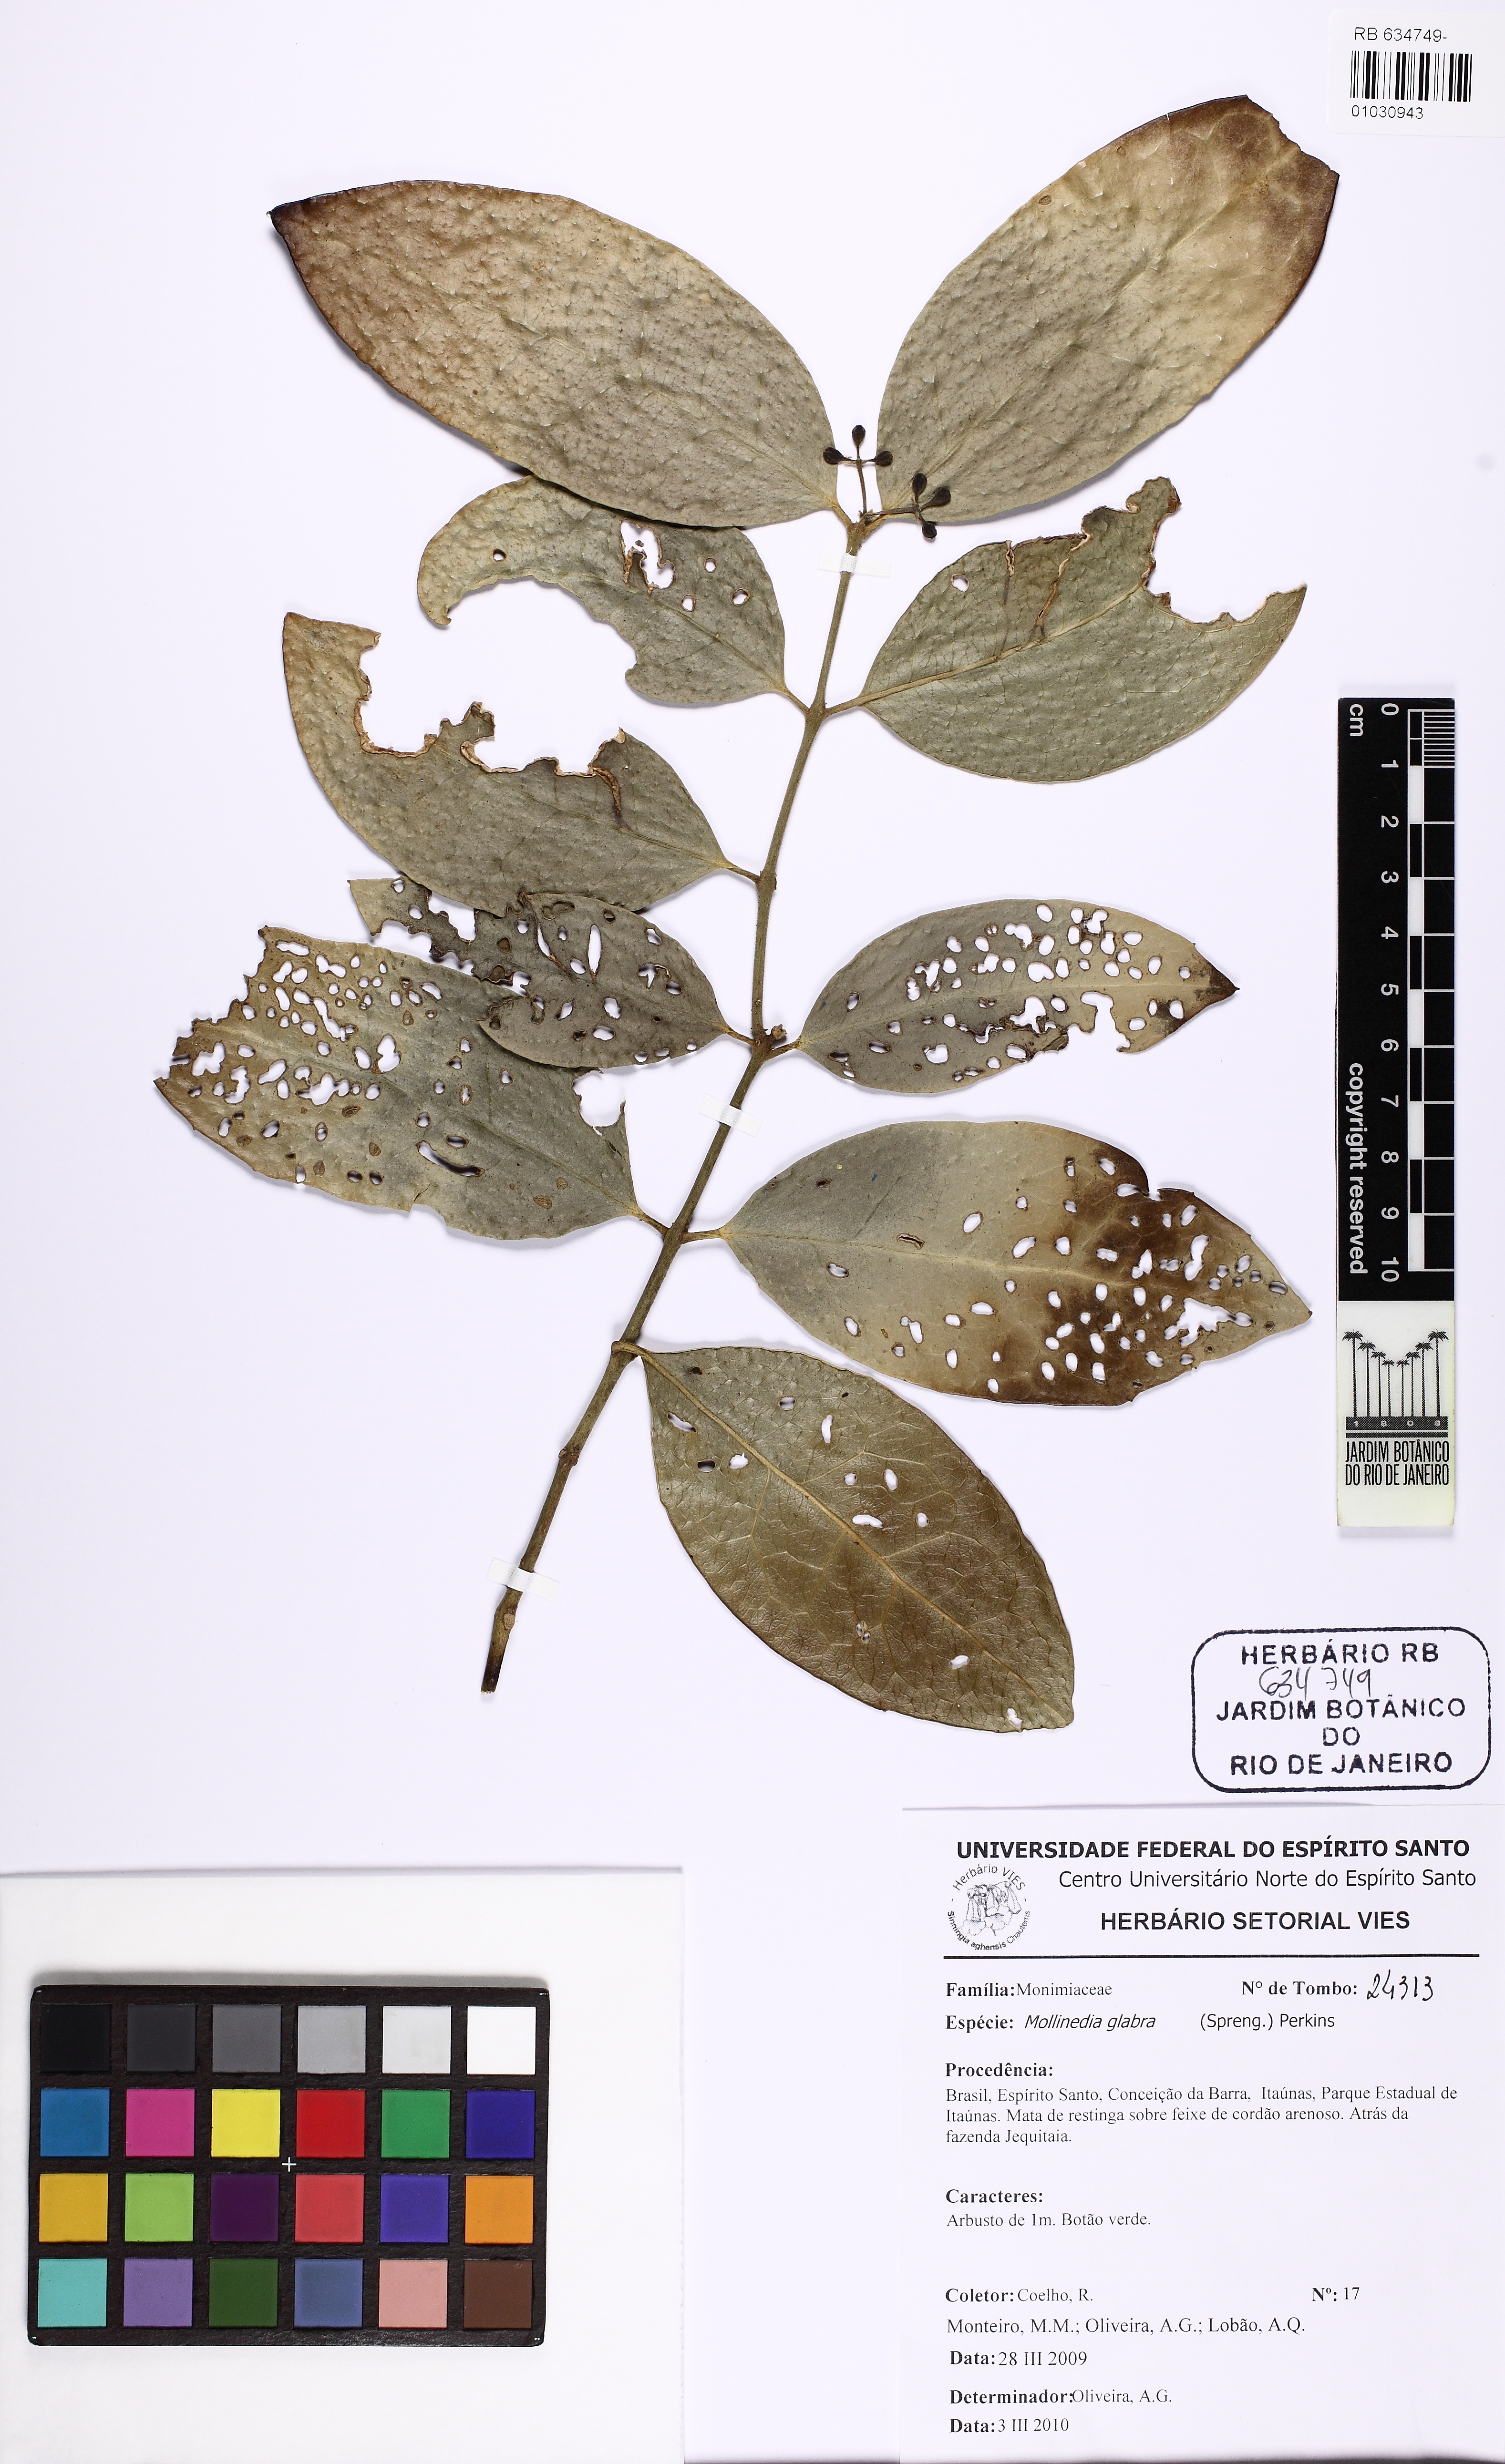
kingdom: Plantae
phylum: Tracheophyta
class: Magnoliopsida
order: Laurales
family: Monimiaceae
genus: Mollinedia
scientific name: Mollinedia glabra
